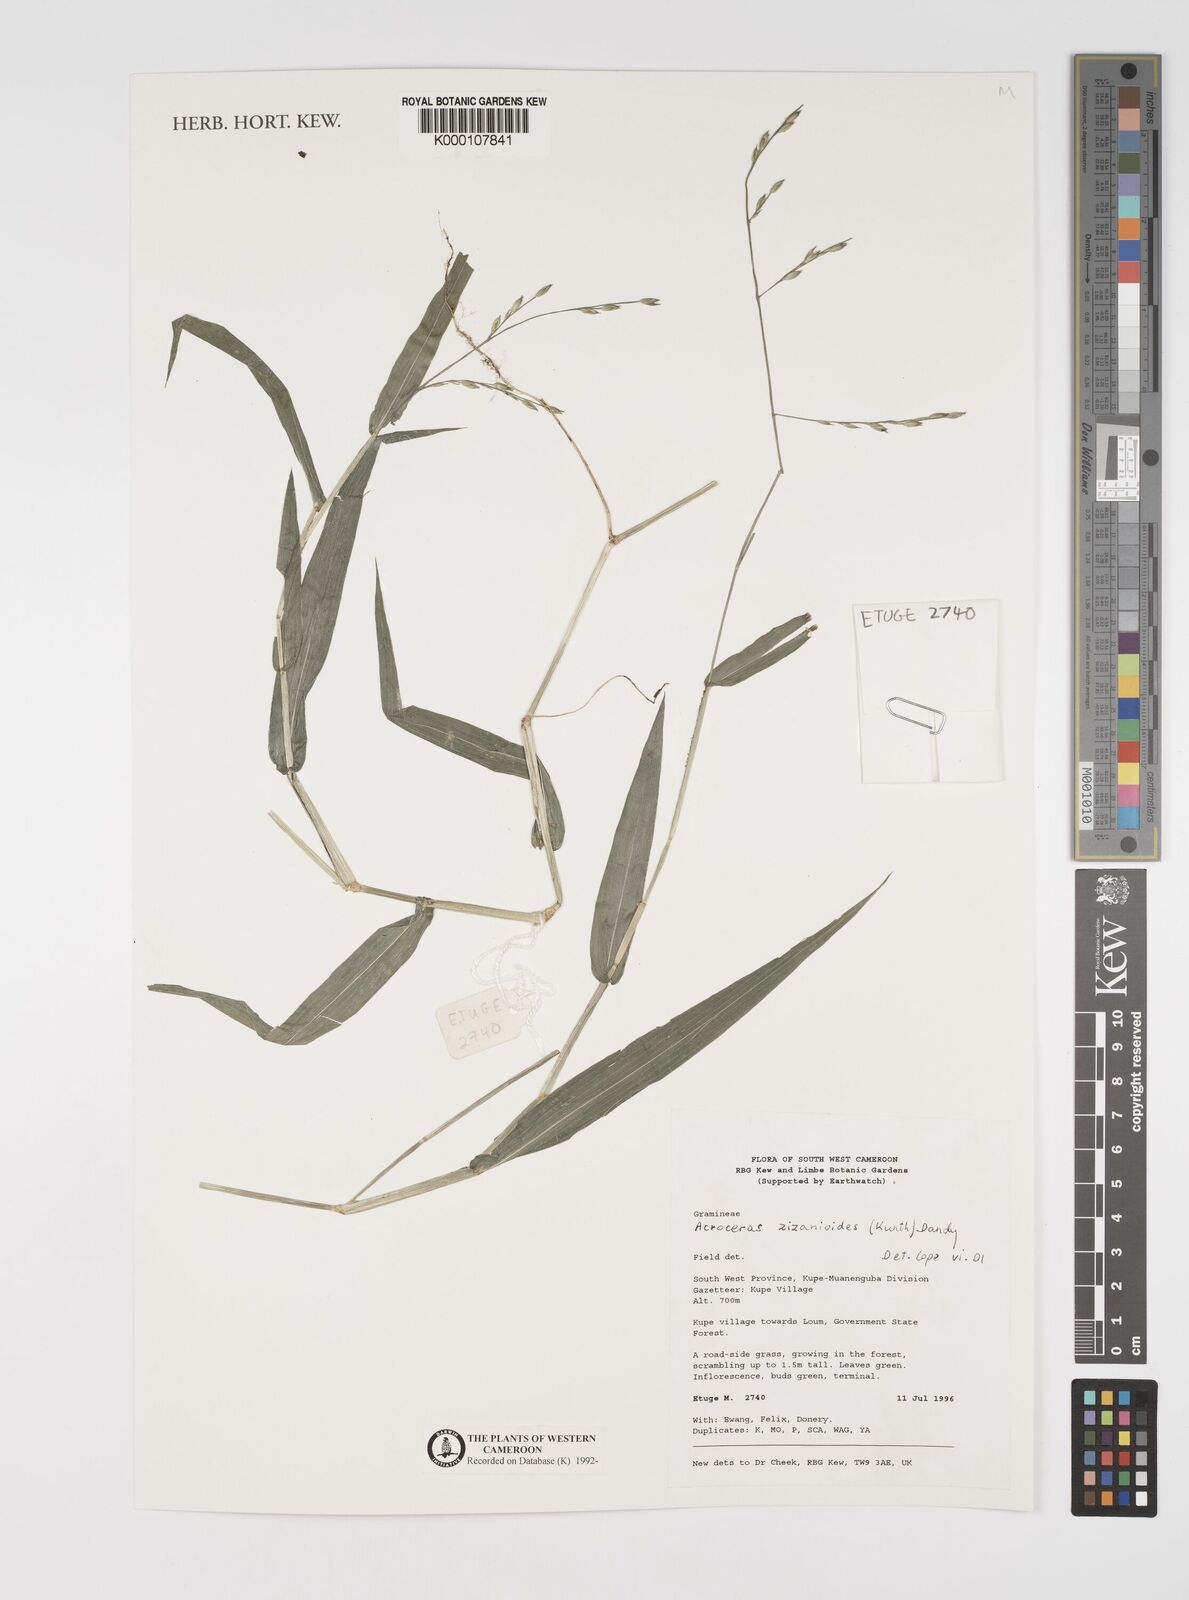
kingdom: Plantae
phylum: Tracheophyta
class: Liliopsida
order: Poales
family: Poaceae
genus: Acroceras
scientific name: Acroceras zizanioides
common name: Oat grass
